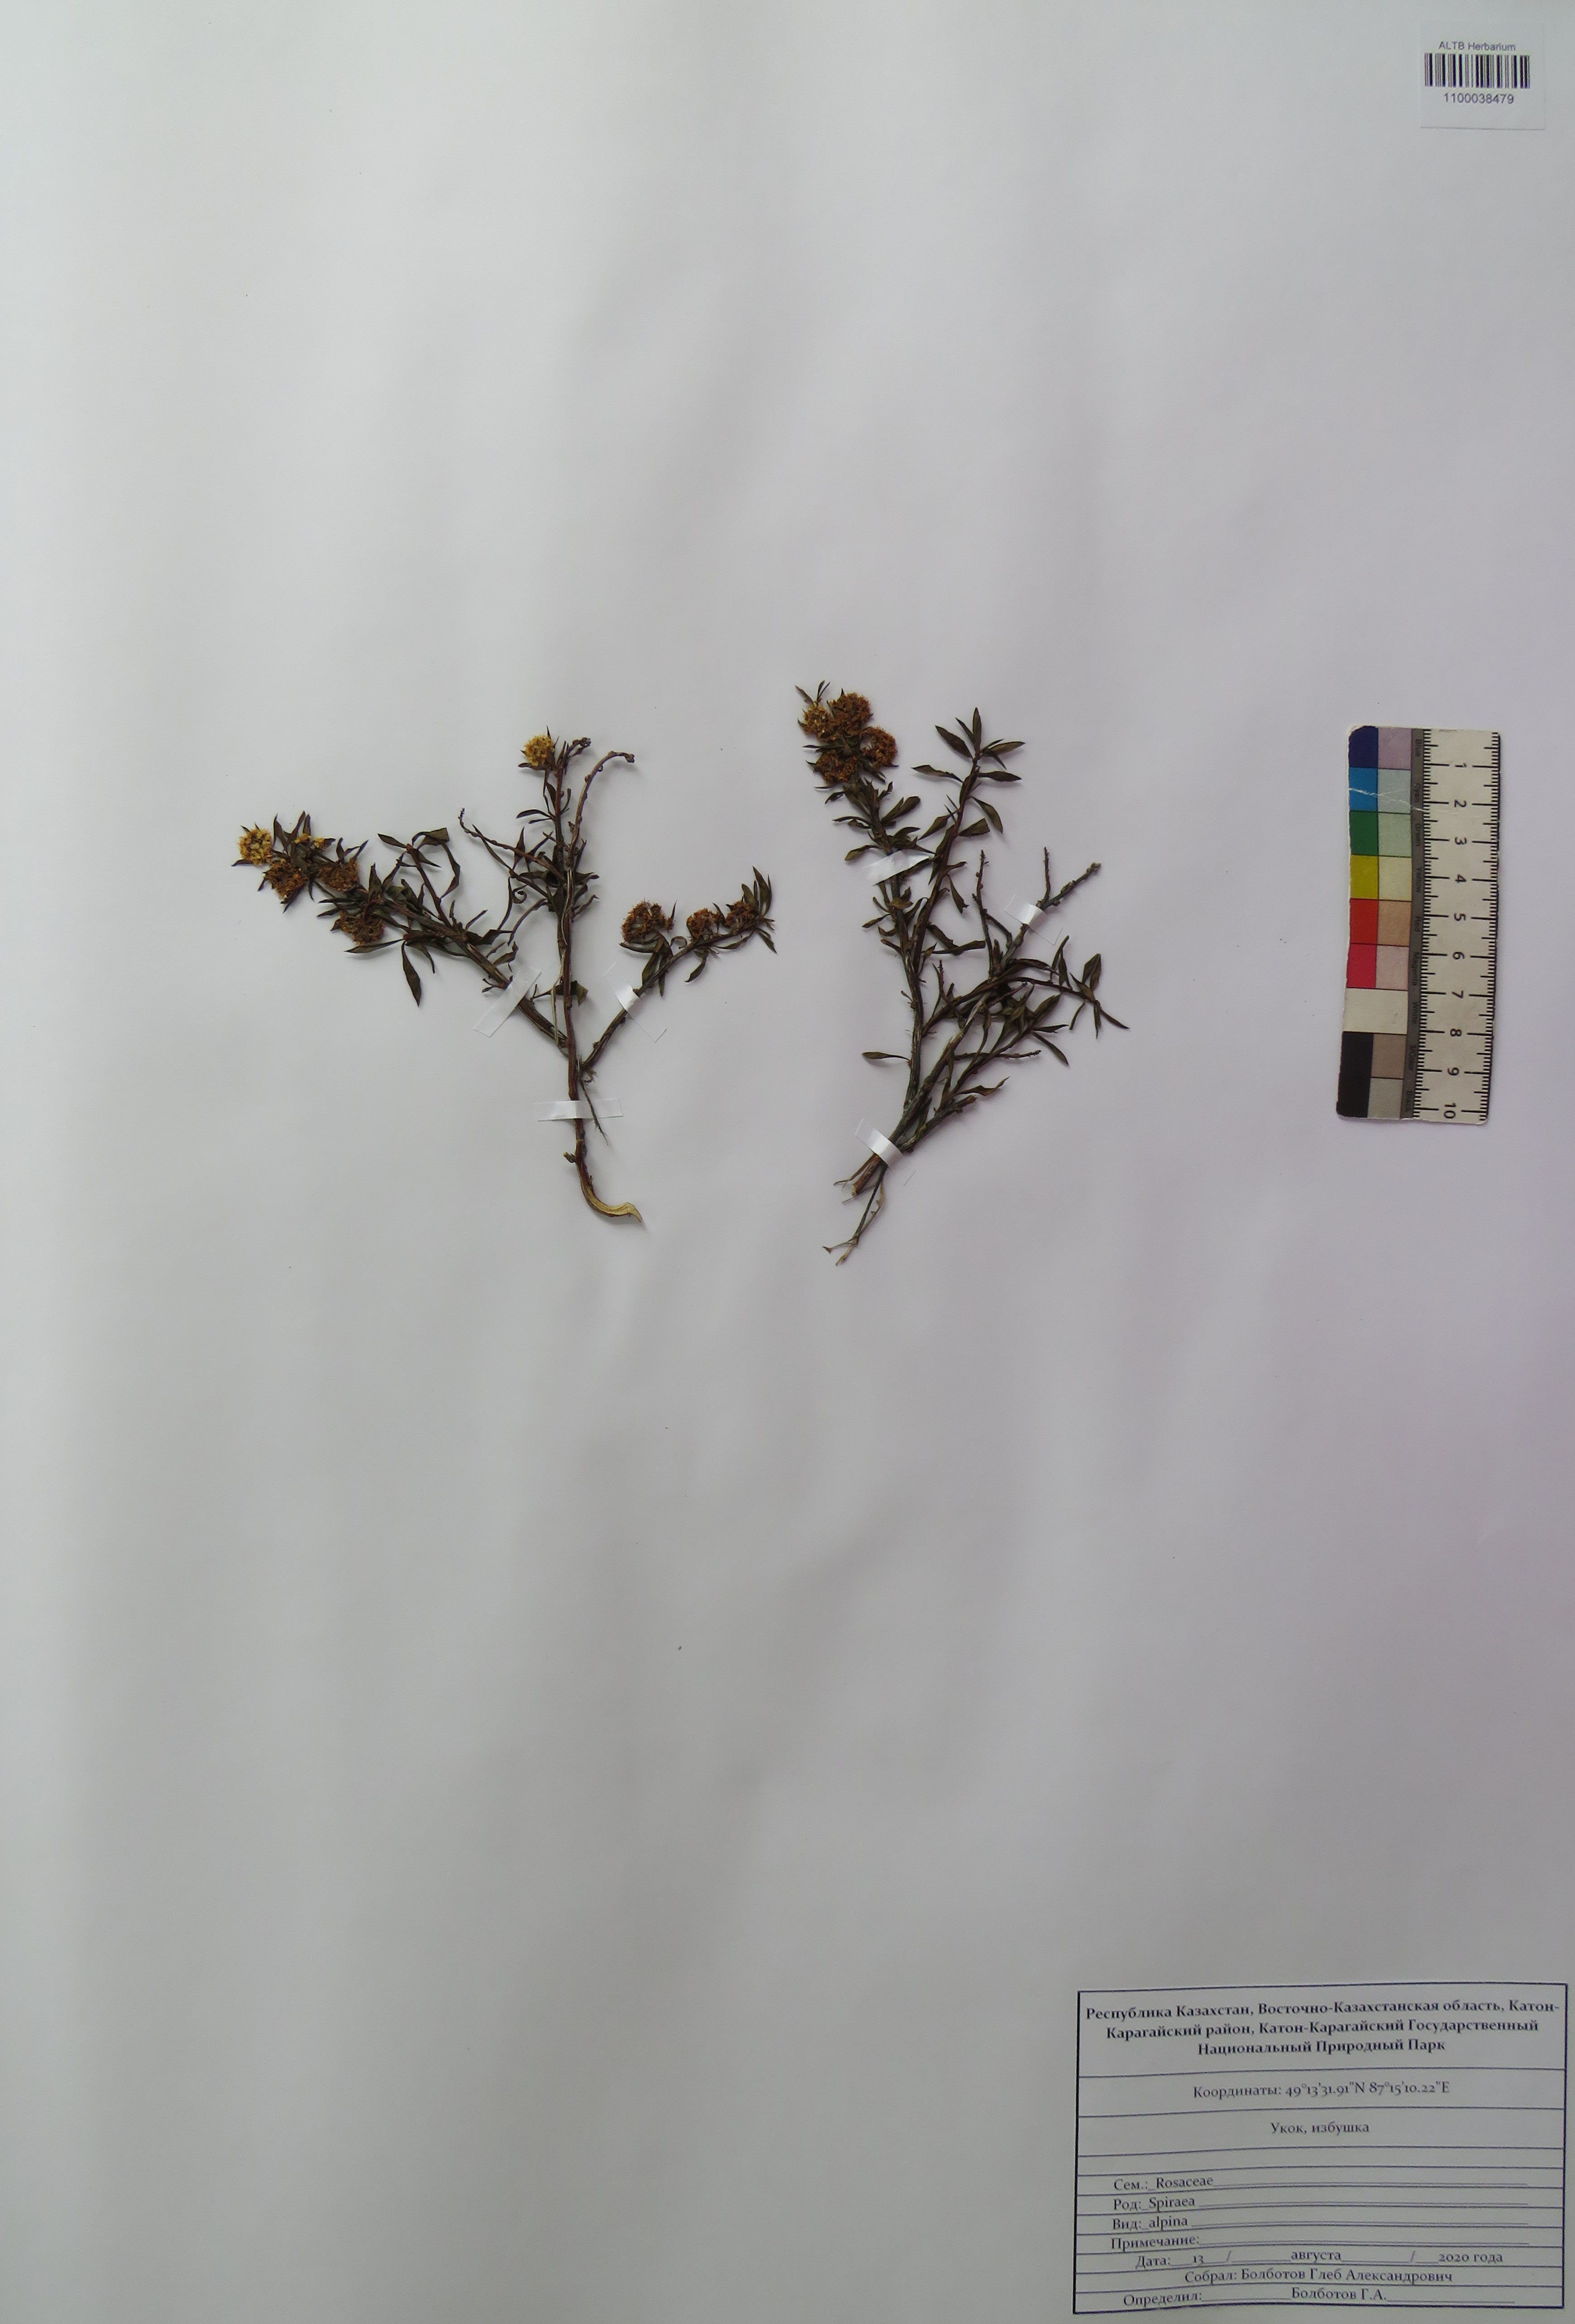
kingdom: Plantae
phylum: Tracheophyta
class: Magnoliopsida
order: Rosales
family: Rosaceae
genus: Spiraea
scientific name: Spiraea alpina
